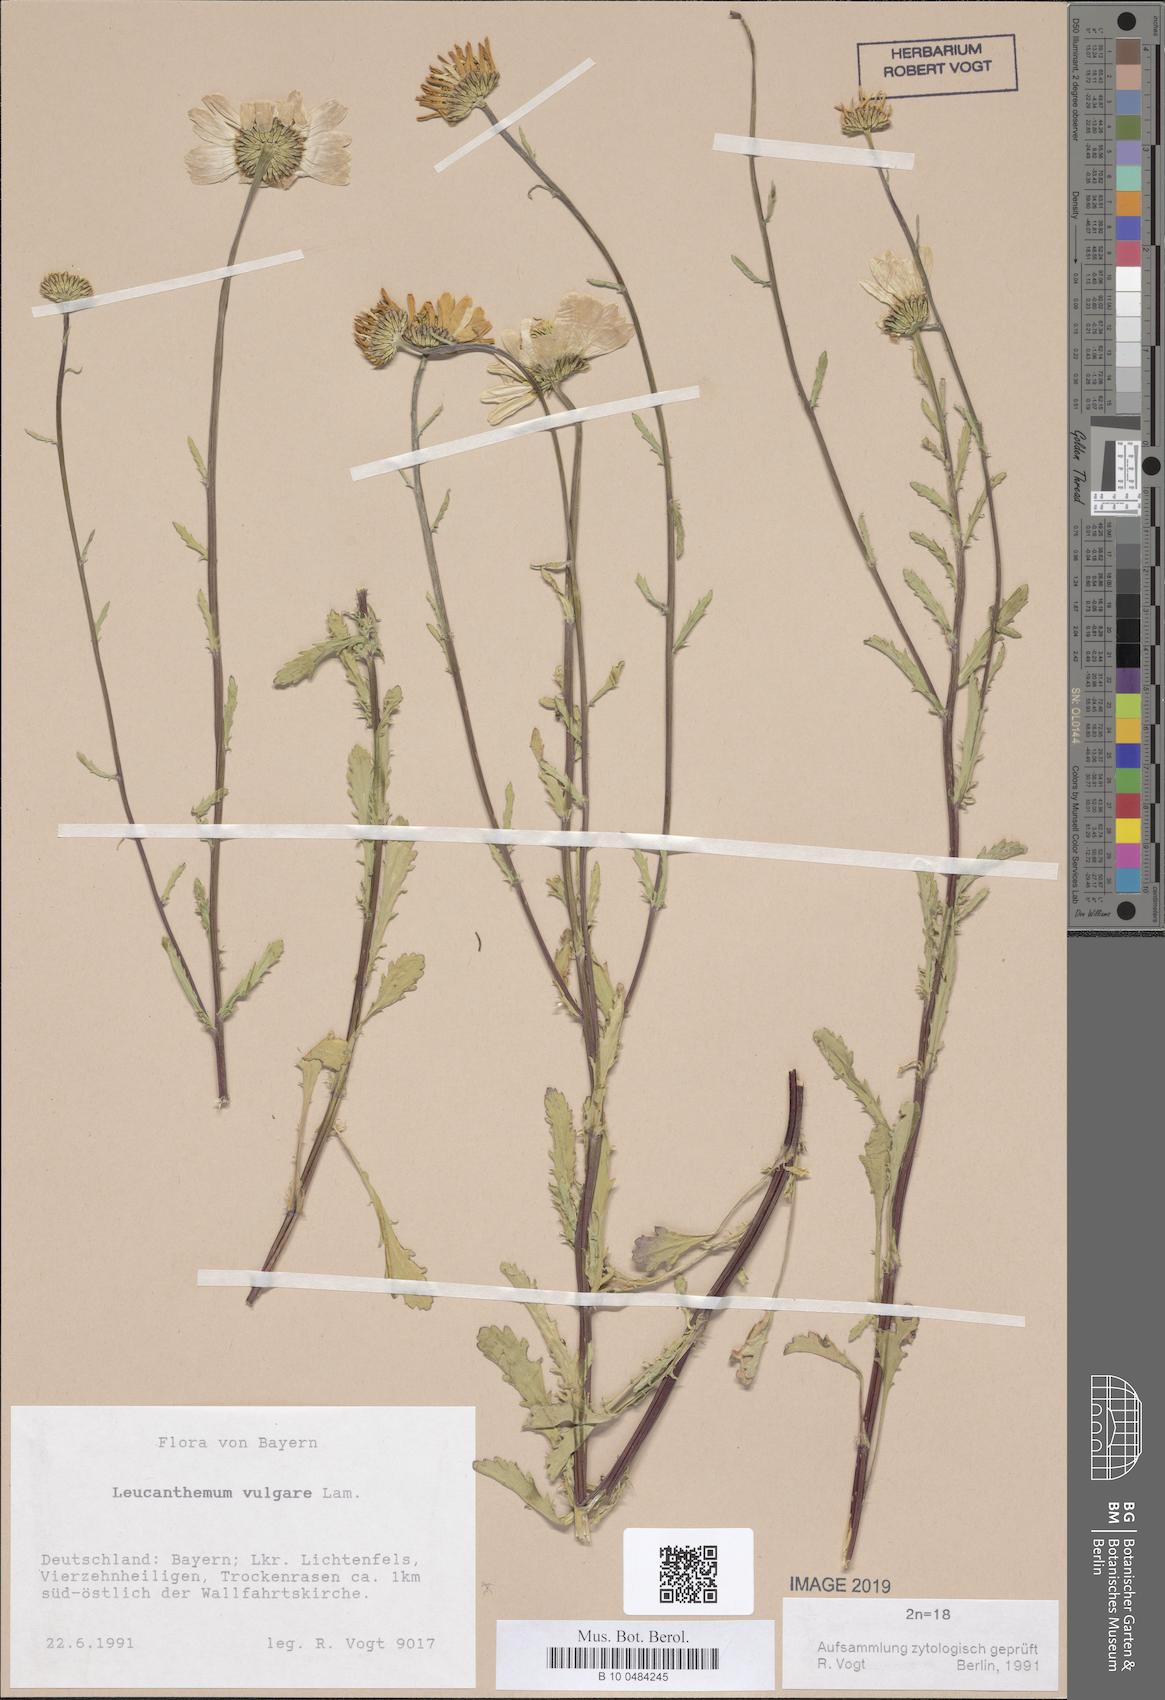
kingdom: Plantae
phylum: Tracheophyta
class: Magnoliopsida
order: Asterales
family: Asteraceae
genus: Leucanthemum
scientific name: Leucanthemum vulgare
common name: Oxeye daisy
